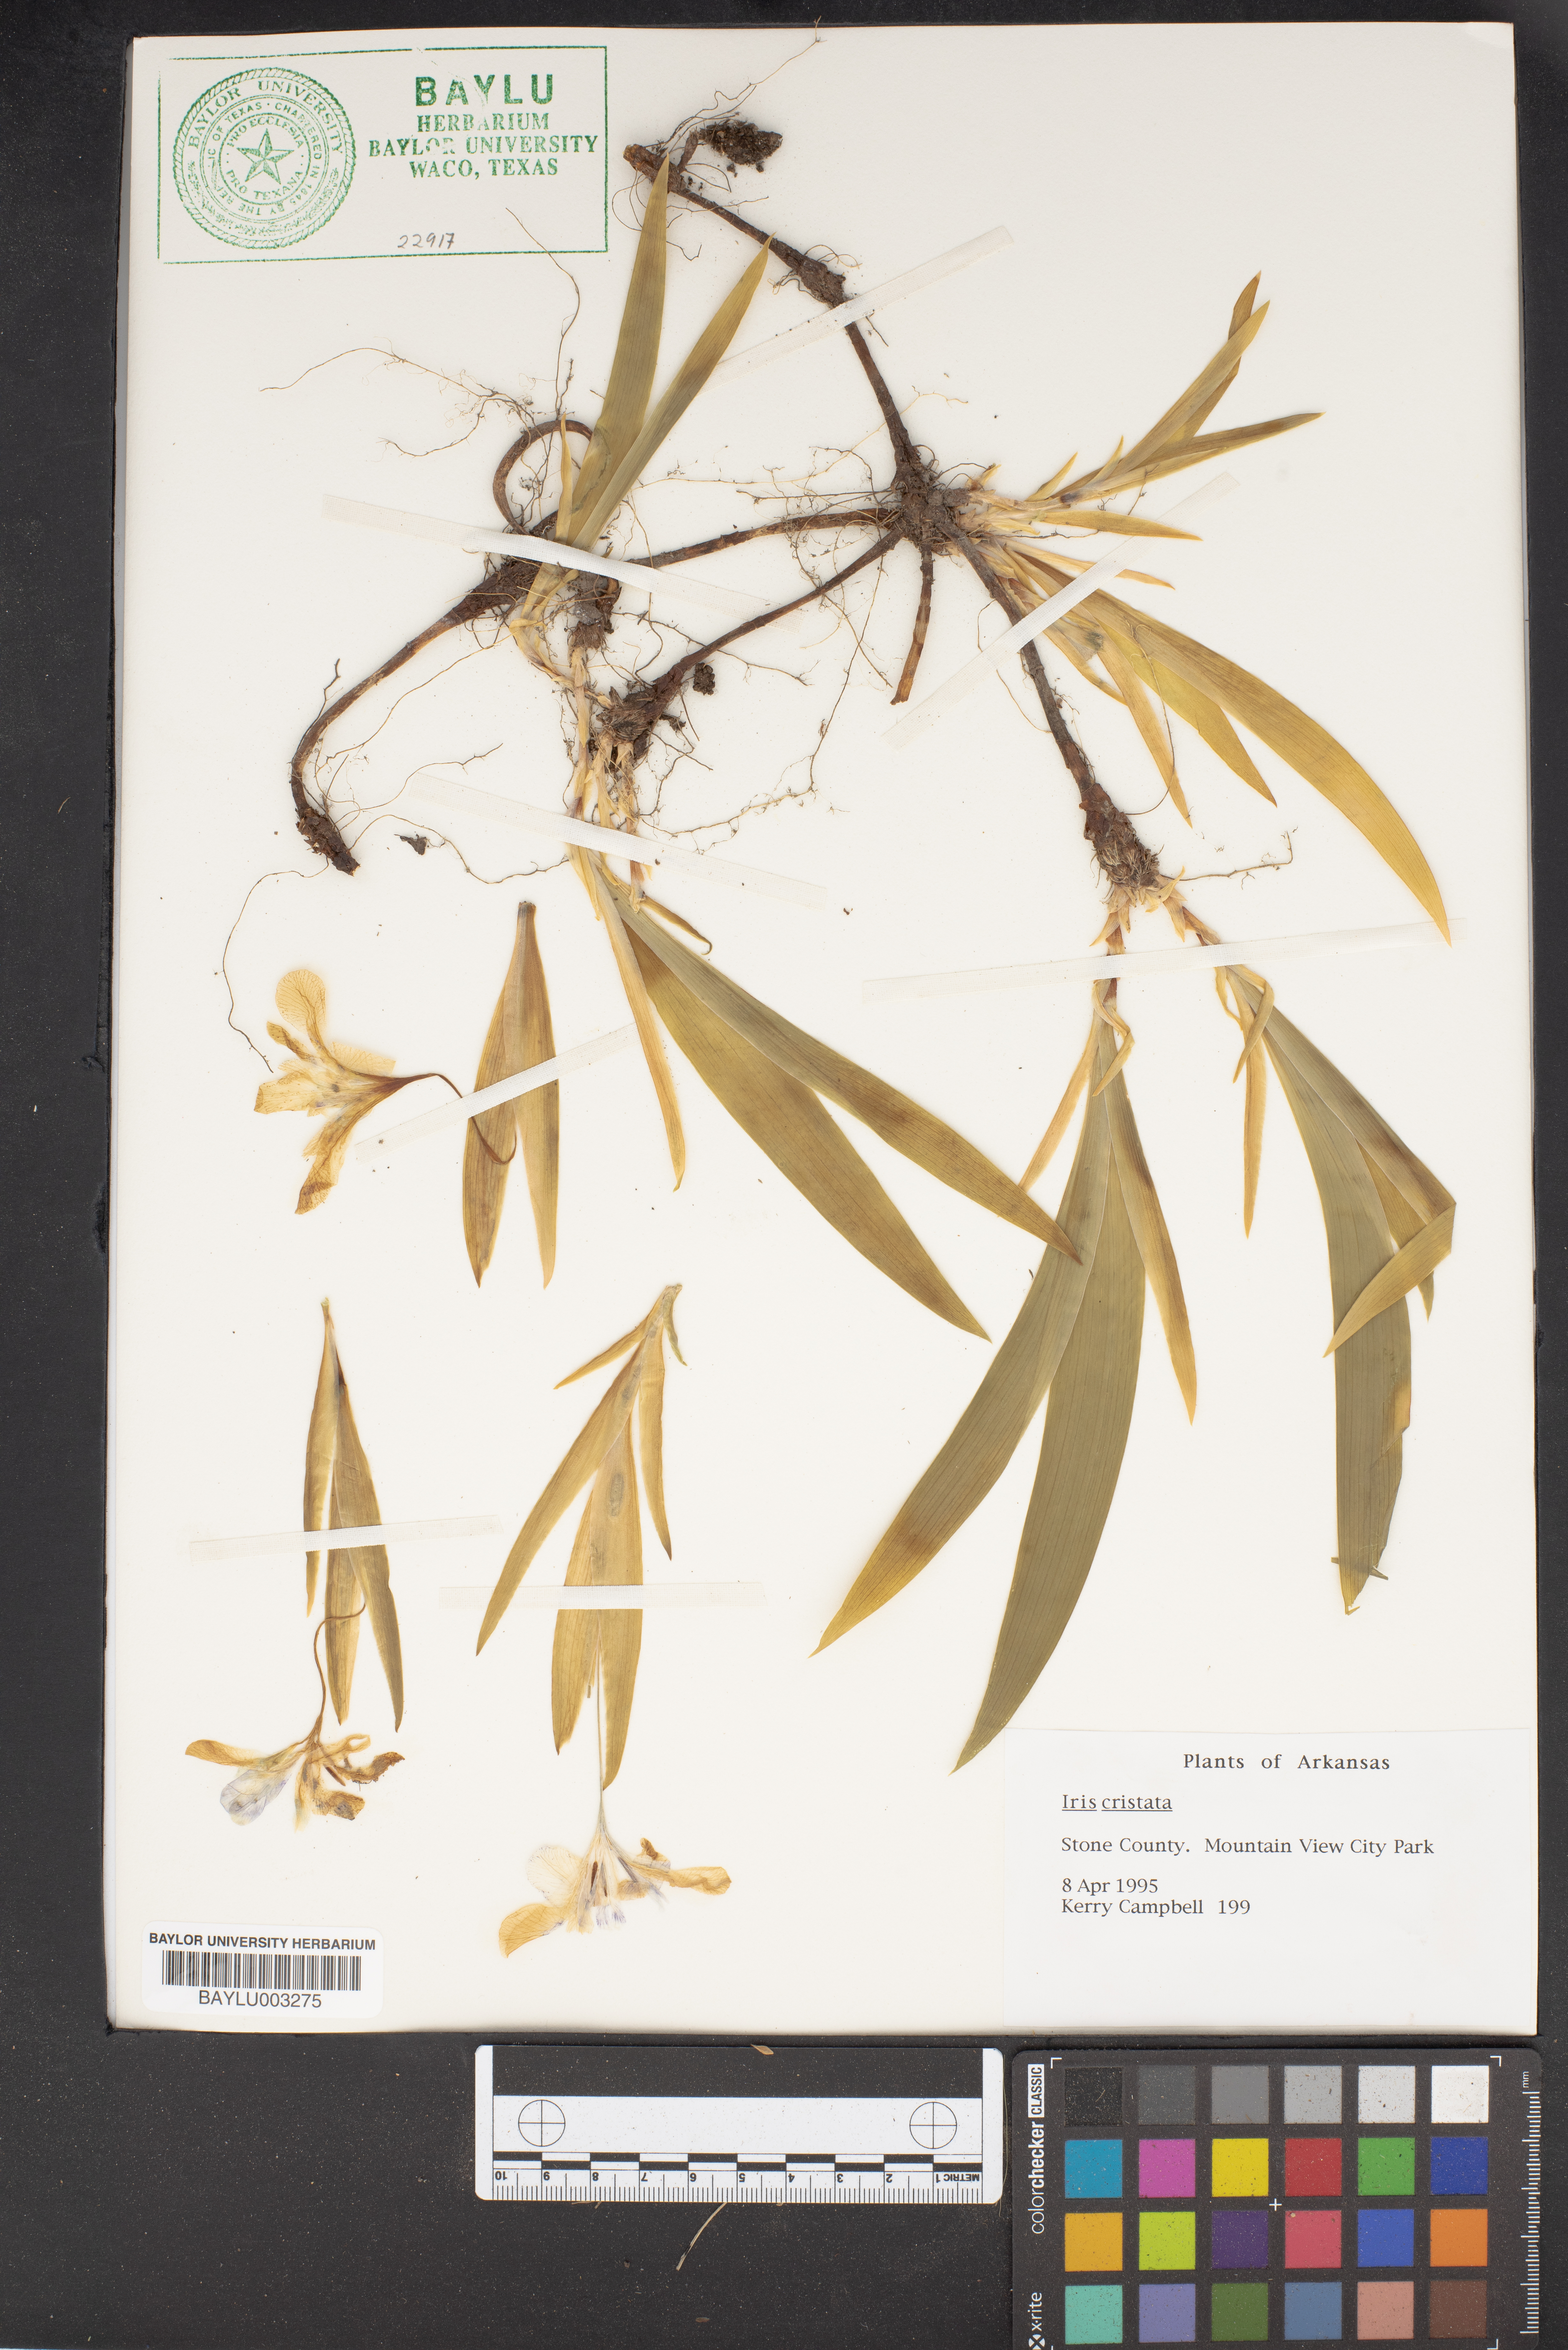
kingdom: Plantae
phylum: Tracheophyta
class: Liliopsida
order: Asparagales
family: Iridaceae
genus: Iris
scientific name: Iris cristata
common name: Crested iris
